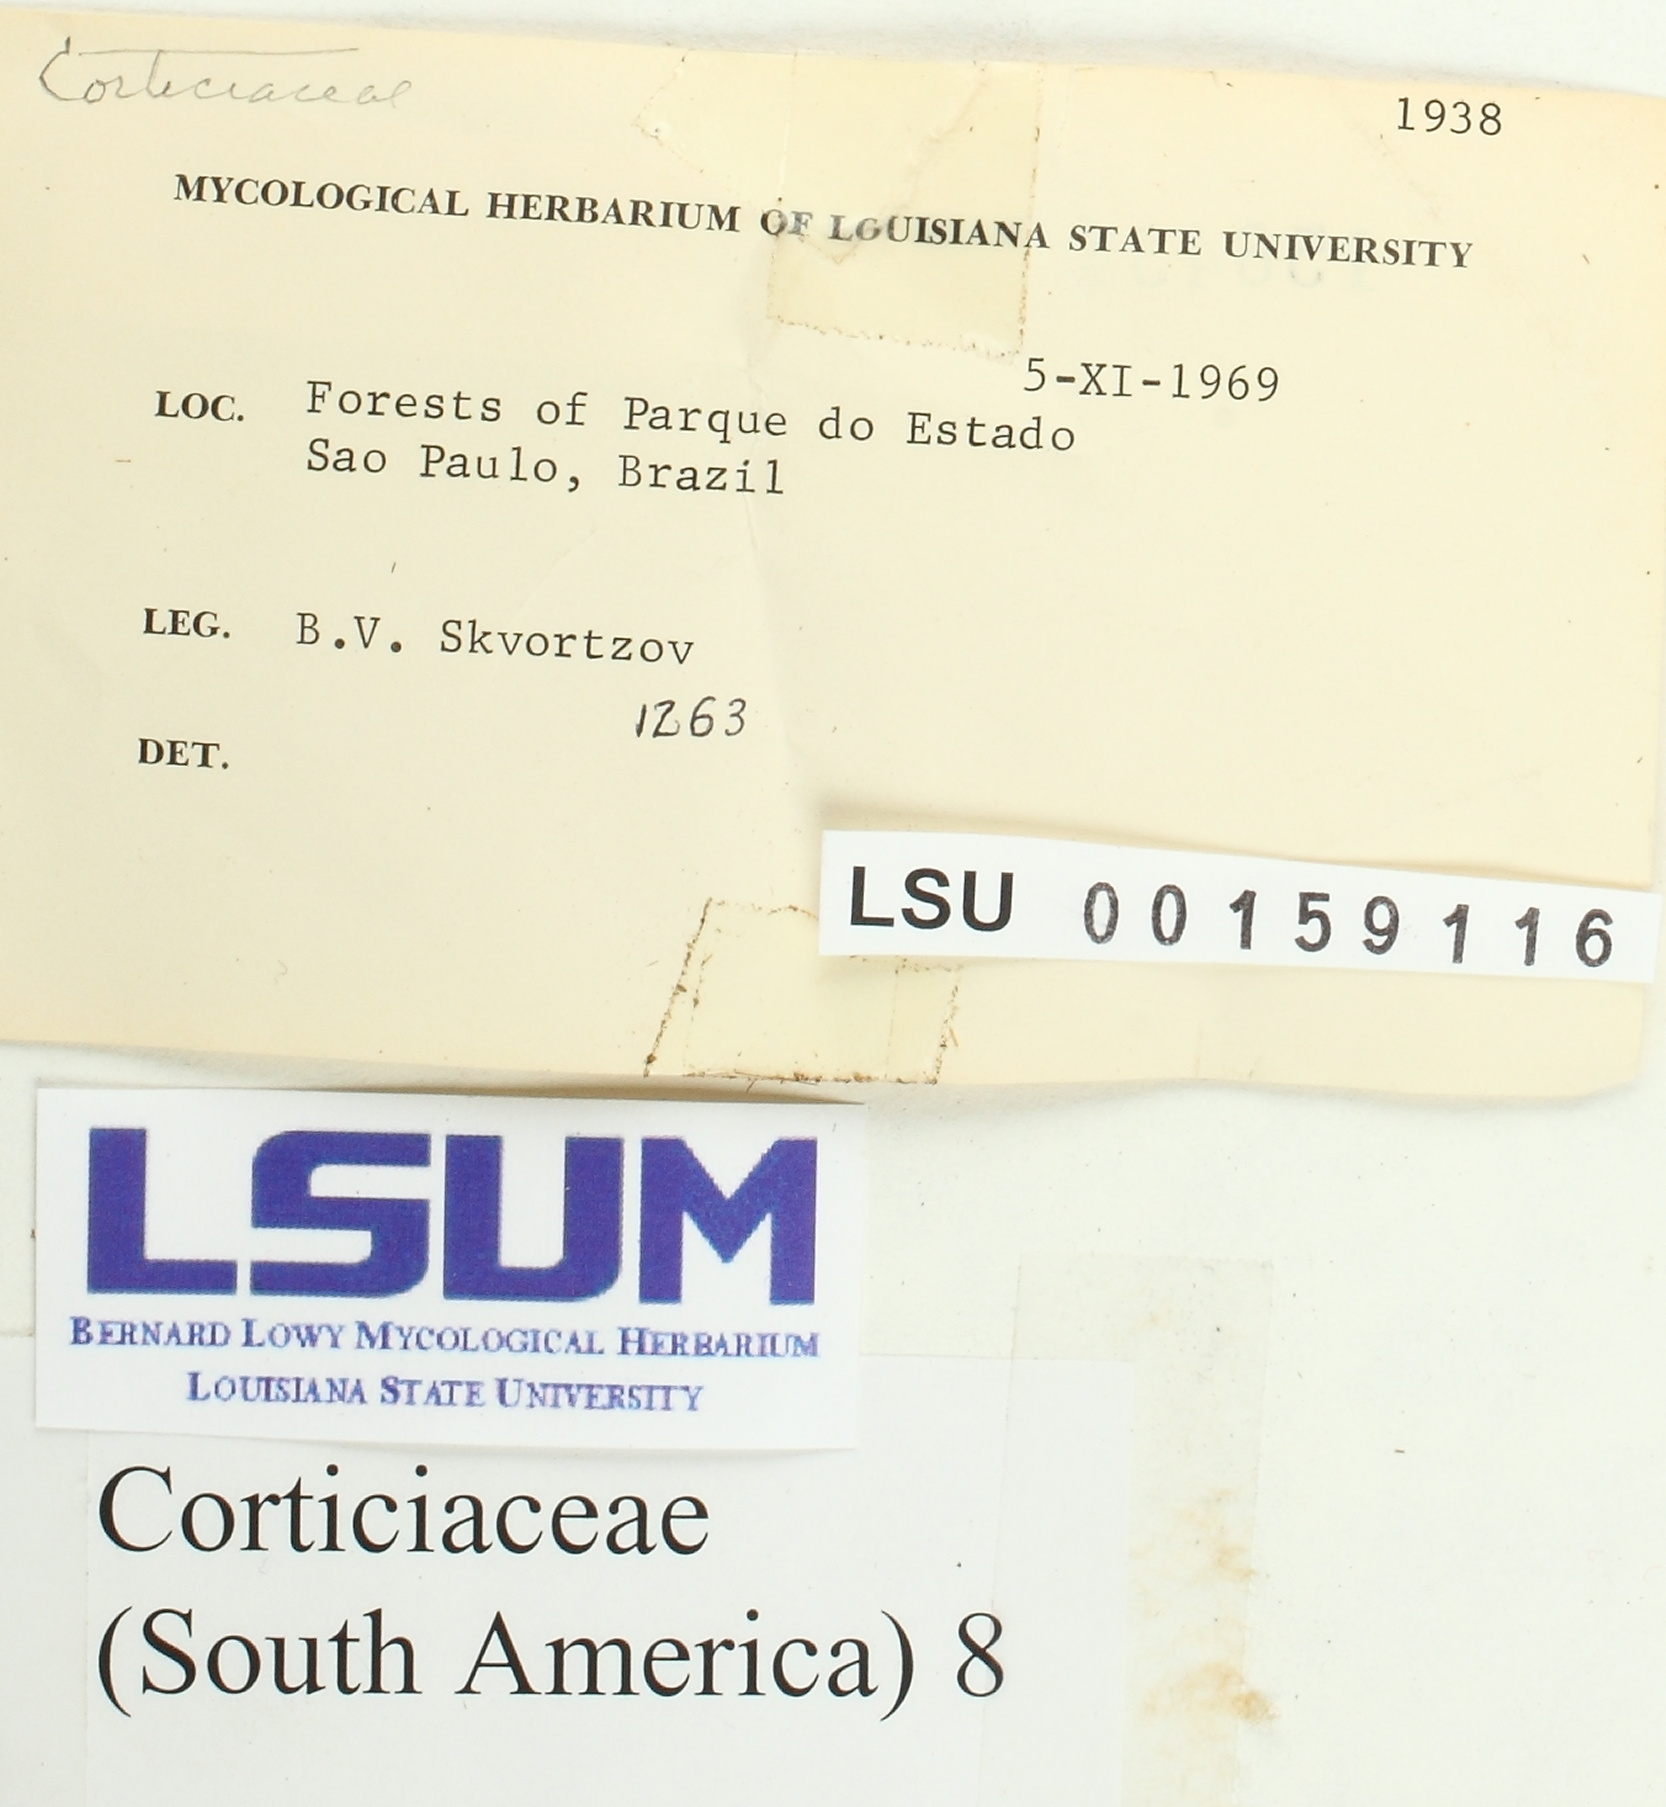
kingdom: Fungi
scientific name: Fungi
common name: Fungi
